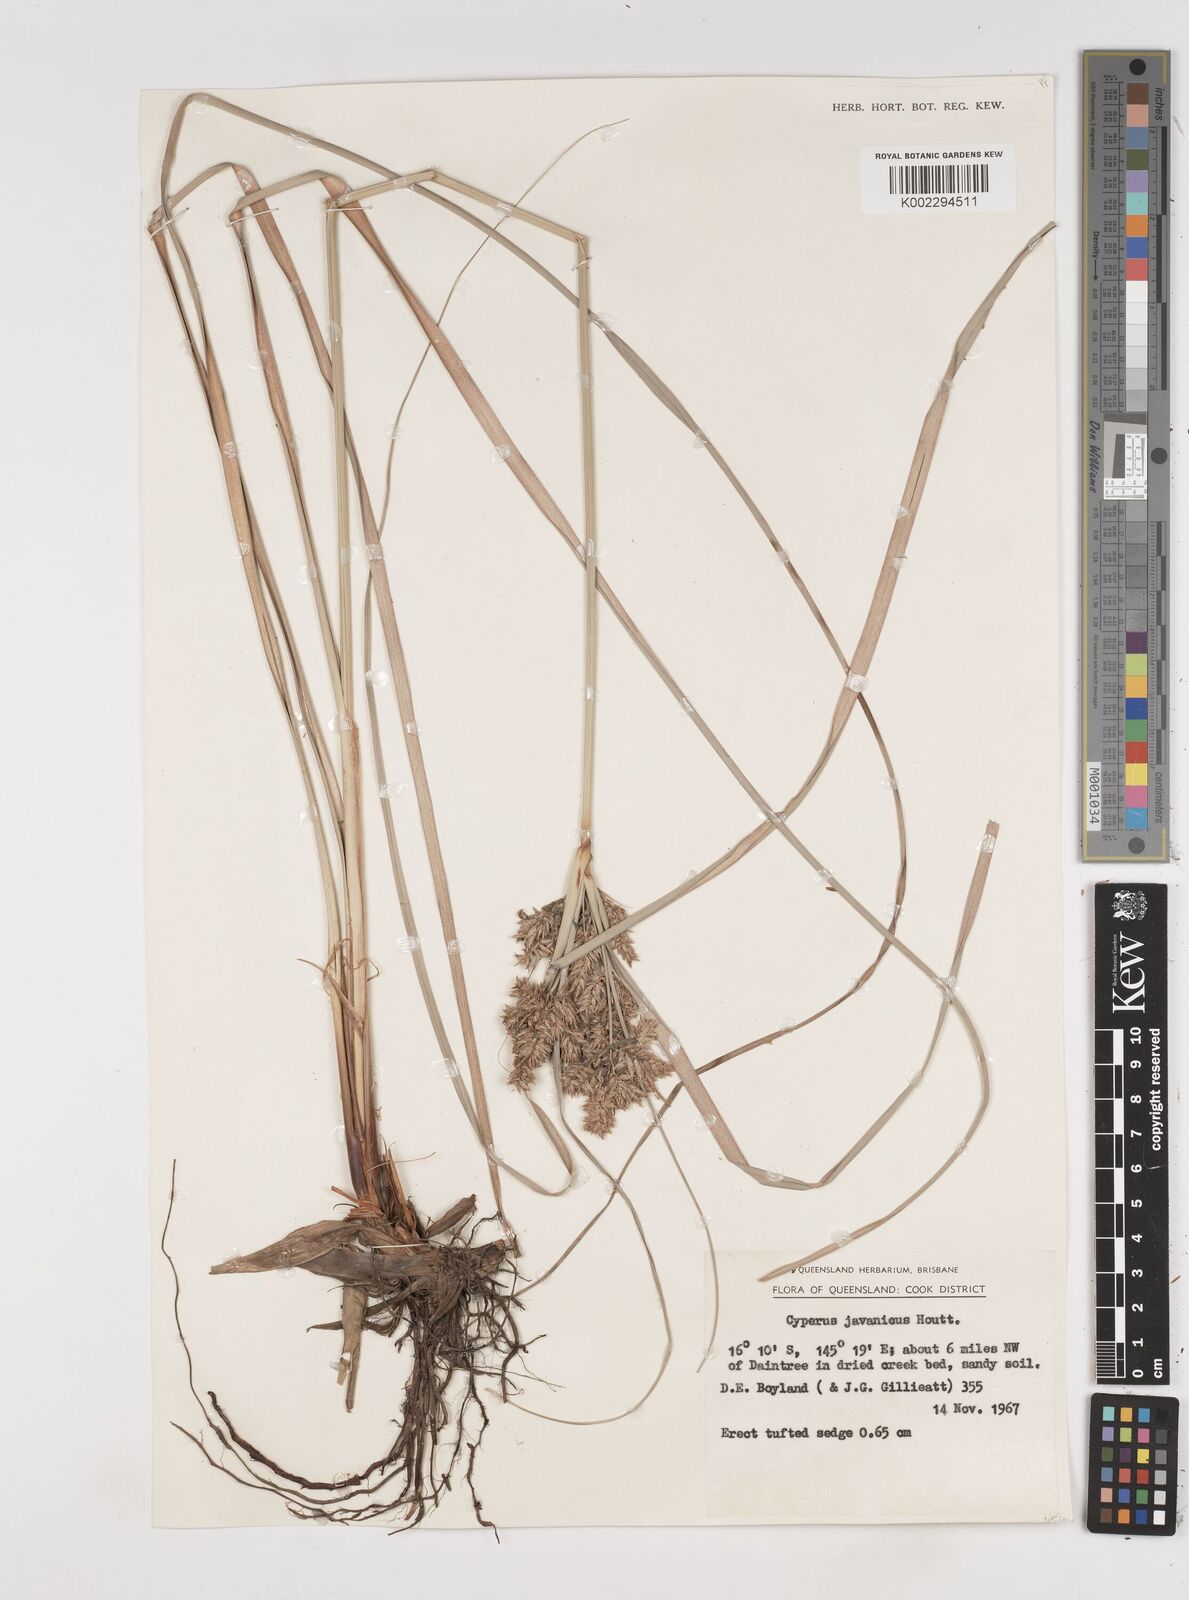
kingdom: Plantae
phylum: Tracheophyta
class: Liliopsida
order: Poales
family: Cyperaceae
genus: Cyperus
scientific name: Cyperus javanicus
